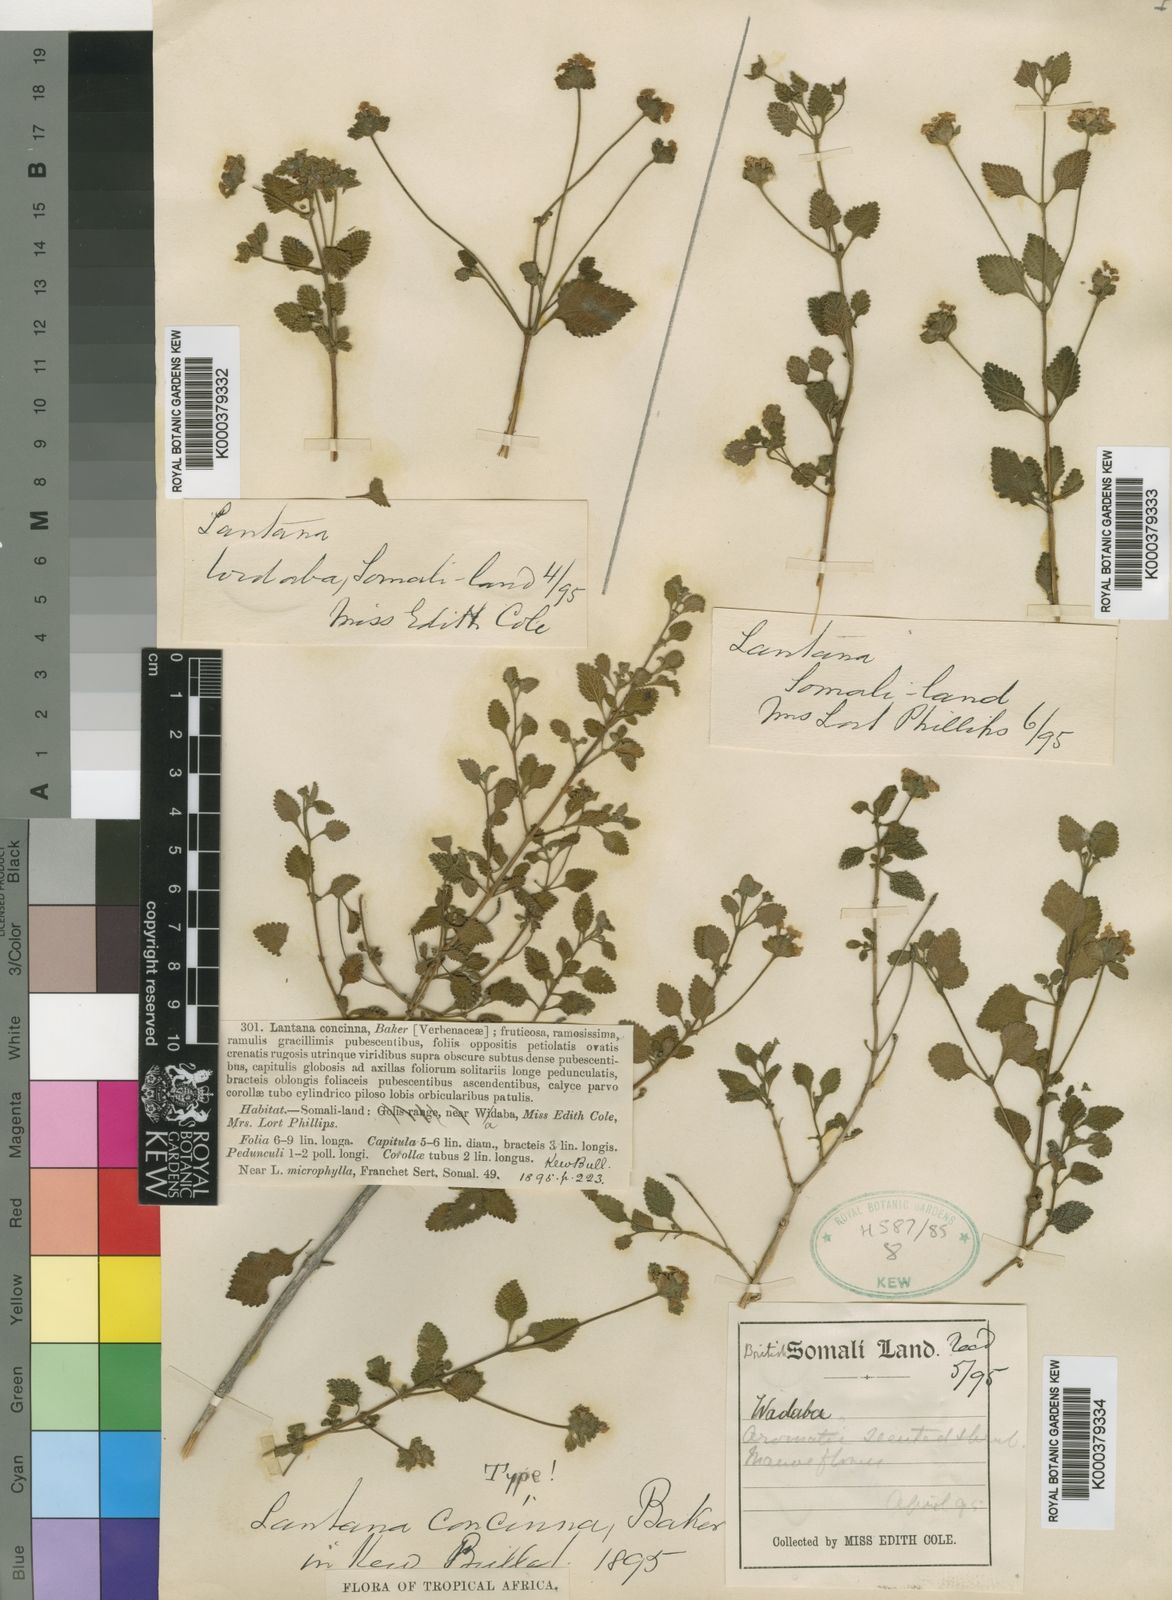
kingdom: Plantae
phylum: Tracheophyta
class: Magnoliopsida
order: Lamiales
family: Verbenaceae
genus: Lantana
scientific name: Lantana viburnoides
